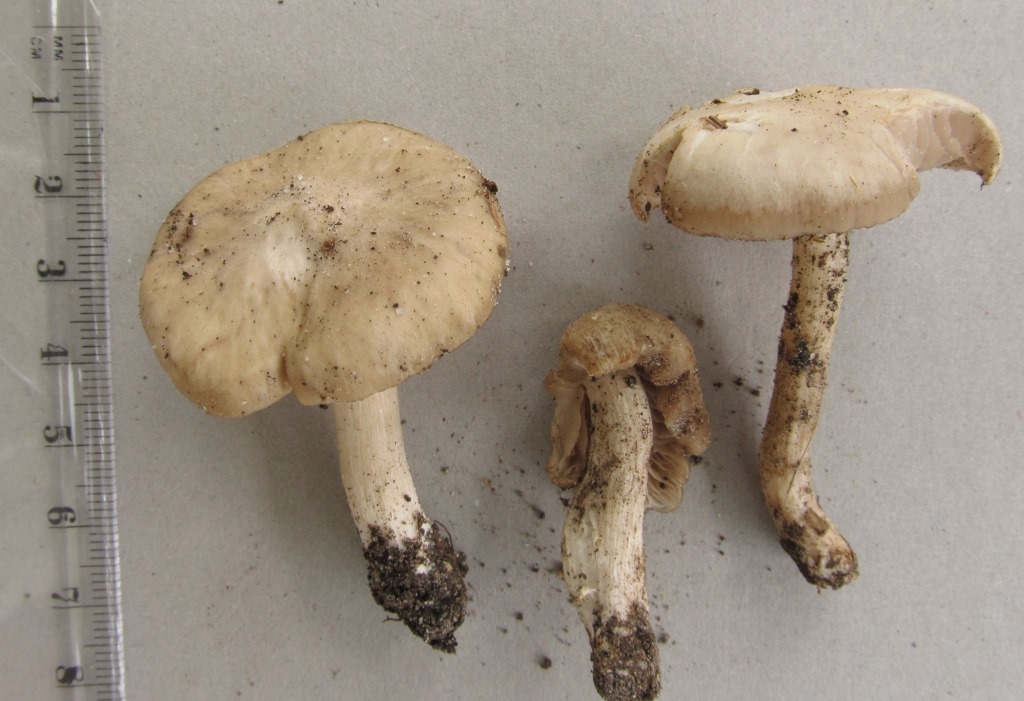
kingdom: Fungi
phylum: Basidiomycota
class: Agaricomycetes
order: Agaricales
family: Entolomataceae
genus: Entoloma
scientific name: Entoloma aprile
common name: maj-rødblad
